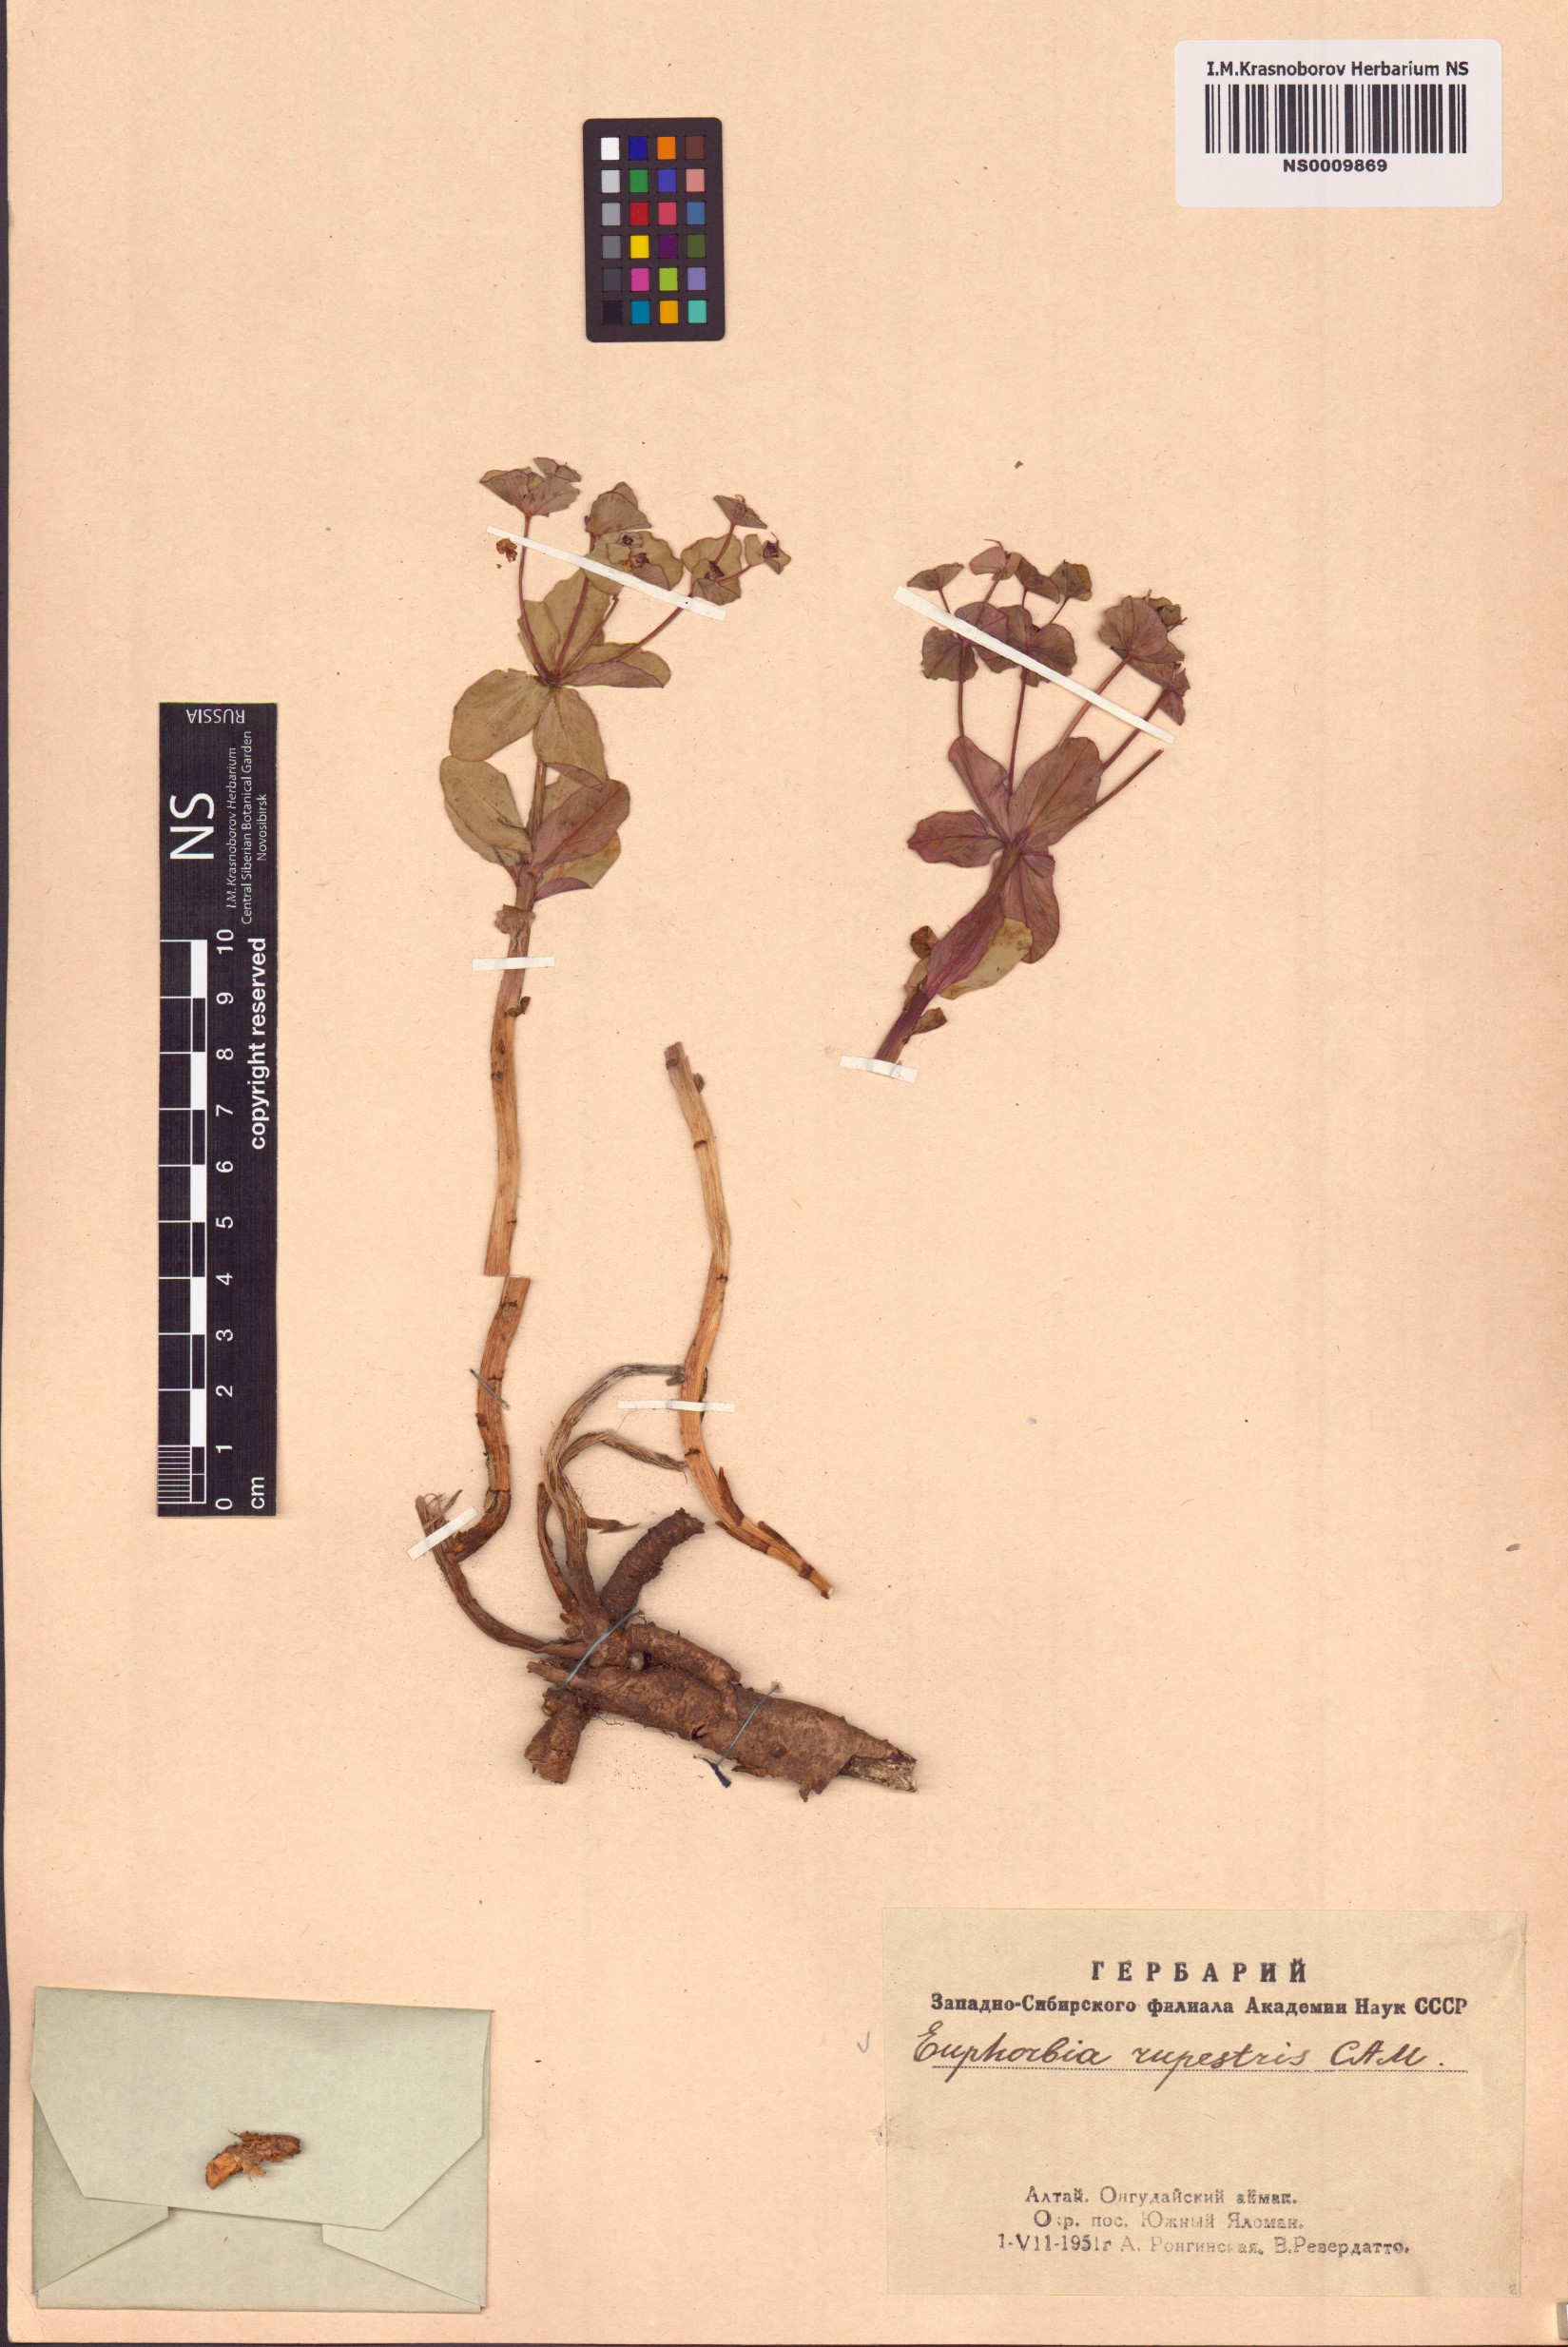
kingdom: Plantae
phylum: Tracheophyta
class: Magnoliopsida
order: Malpighiales
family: Euphorbiaceae
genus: Euphorbia
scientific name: Euphorbia rupestris
